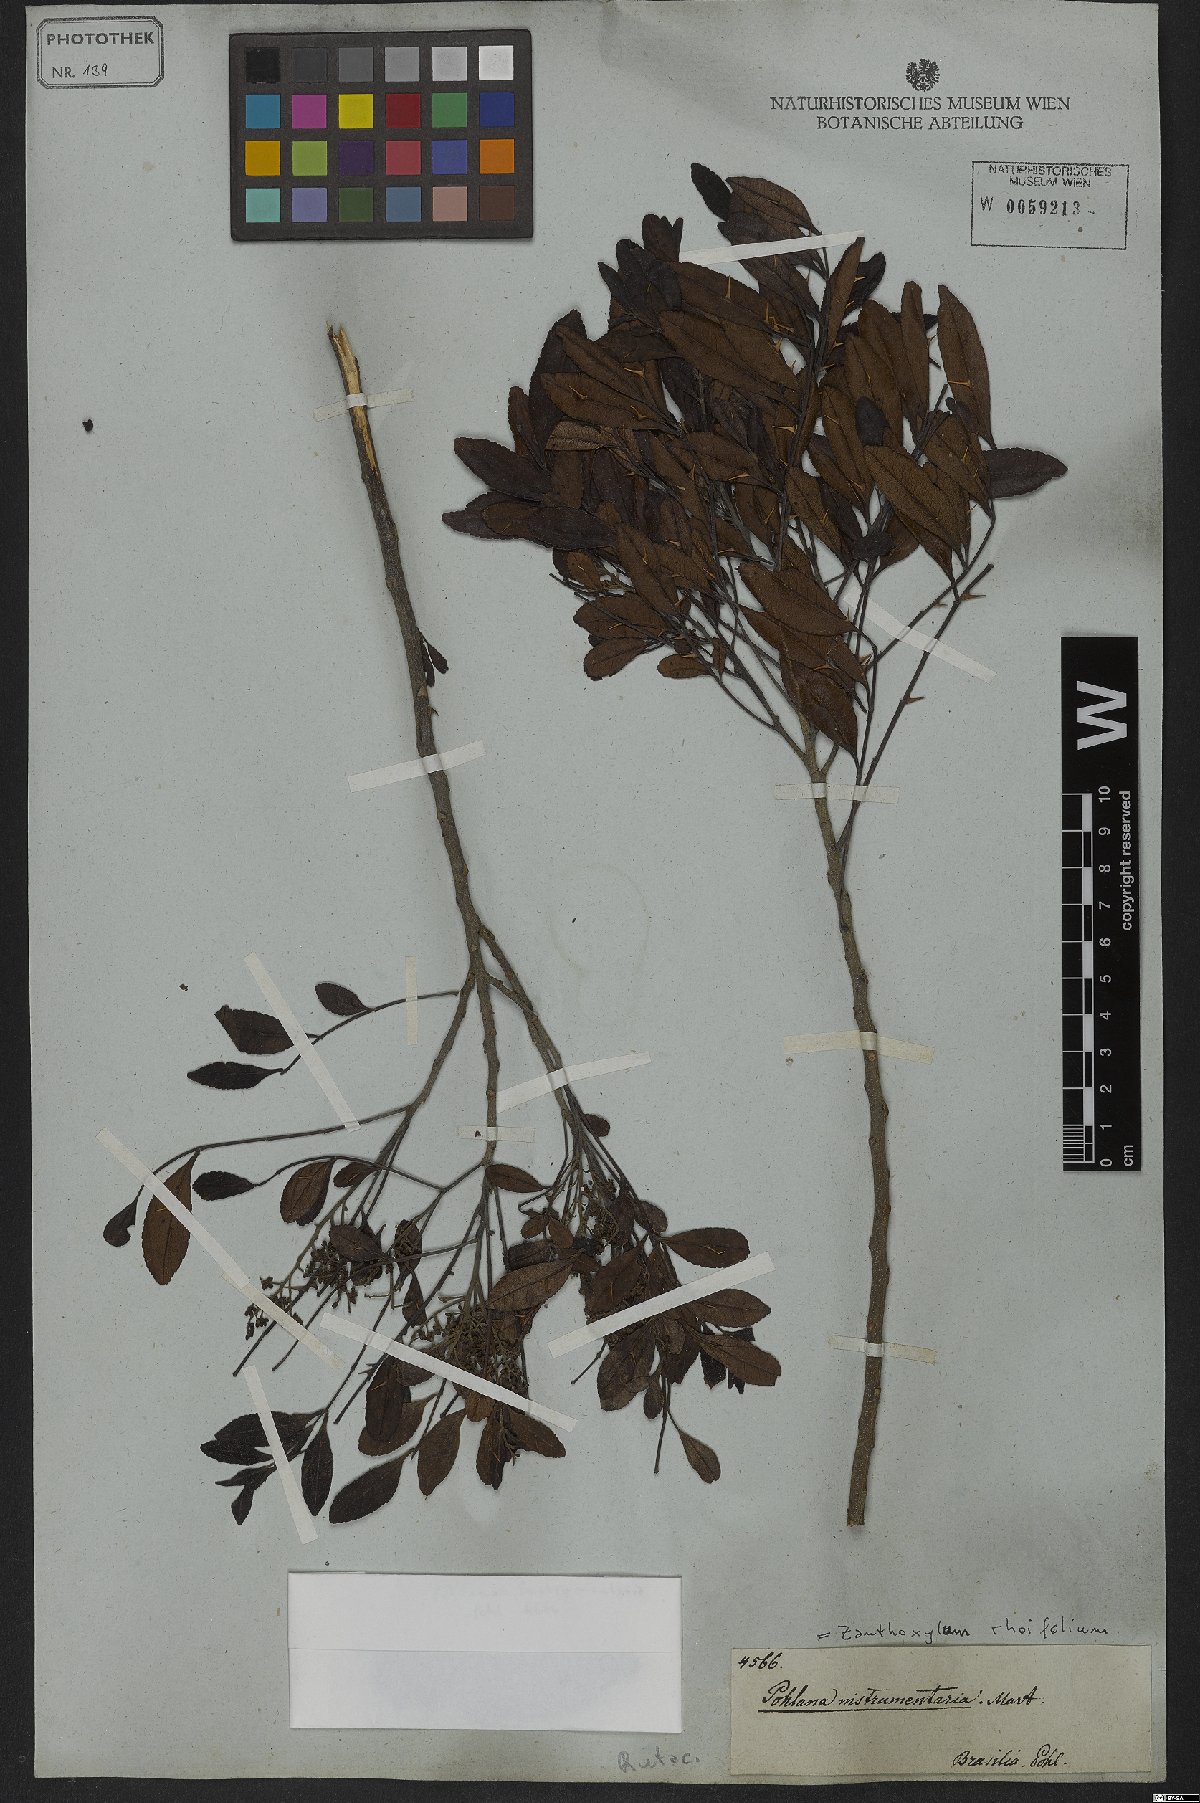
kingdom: Plantae
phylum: Tracheophyta
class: Magnoliopsida
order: Sapindales
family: Rutaceae
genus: Zanthoxylum
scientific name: Zanthoxylum rhoifolium
